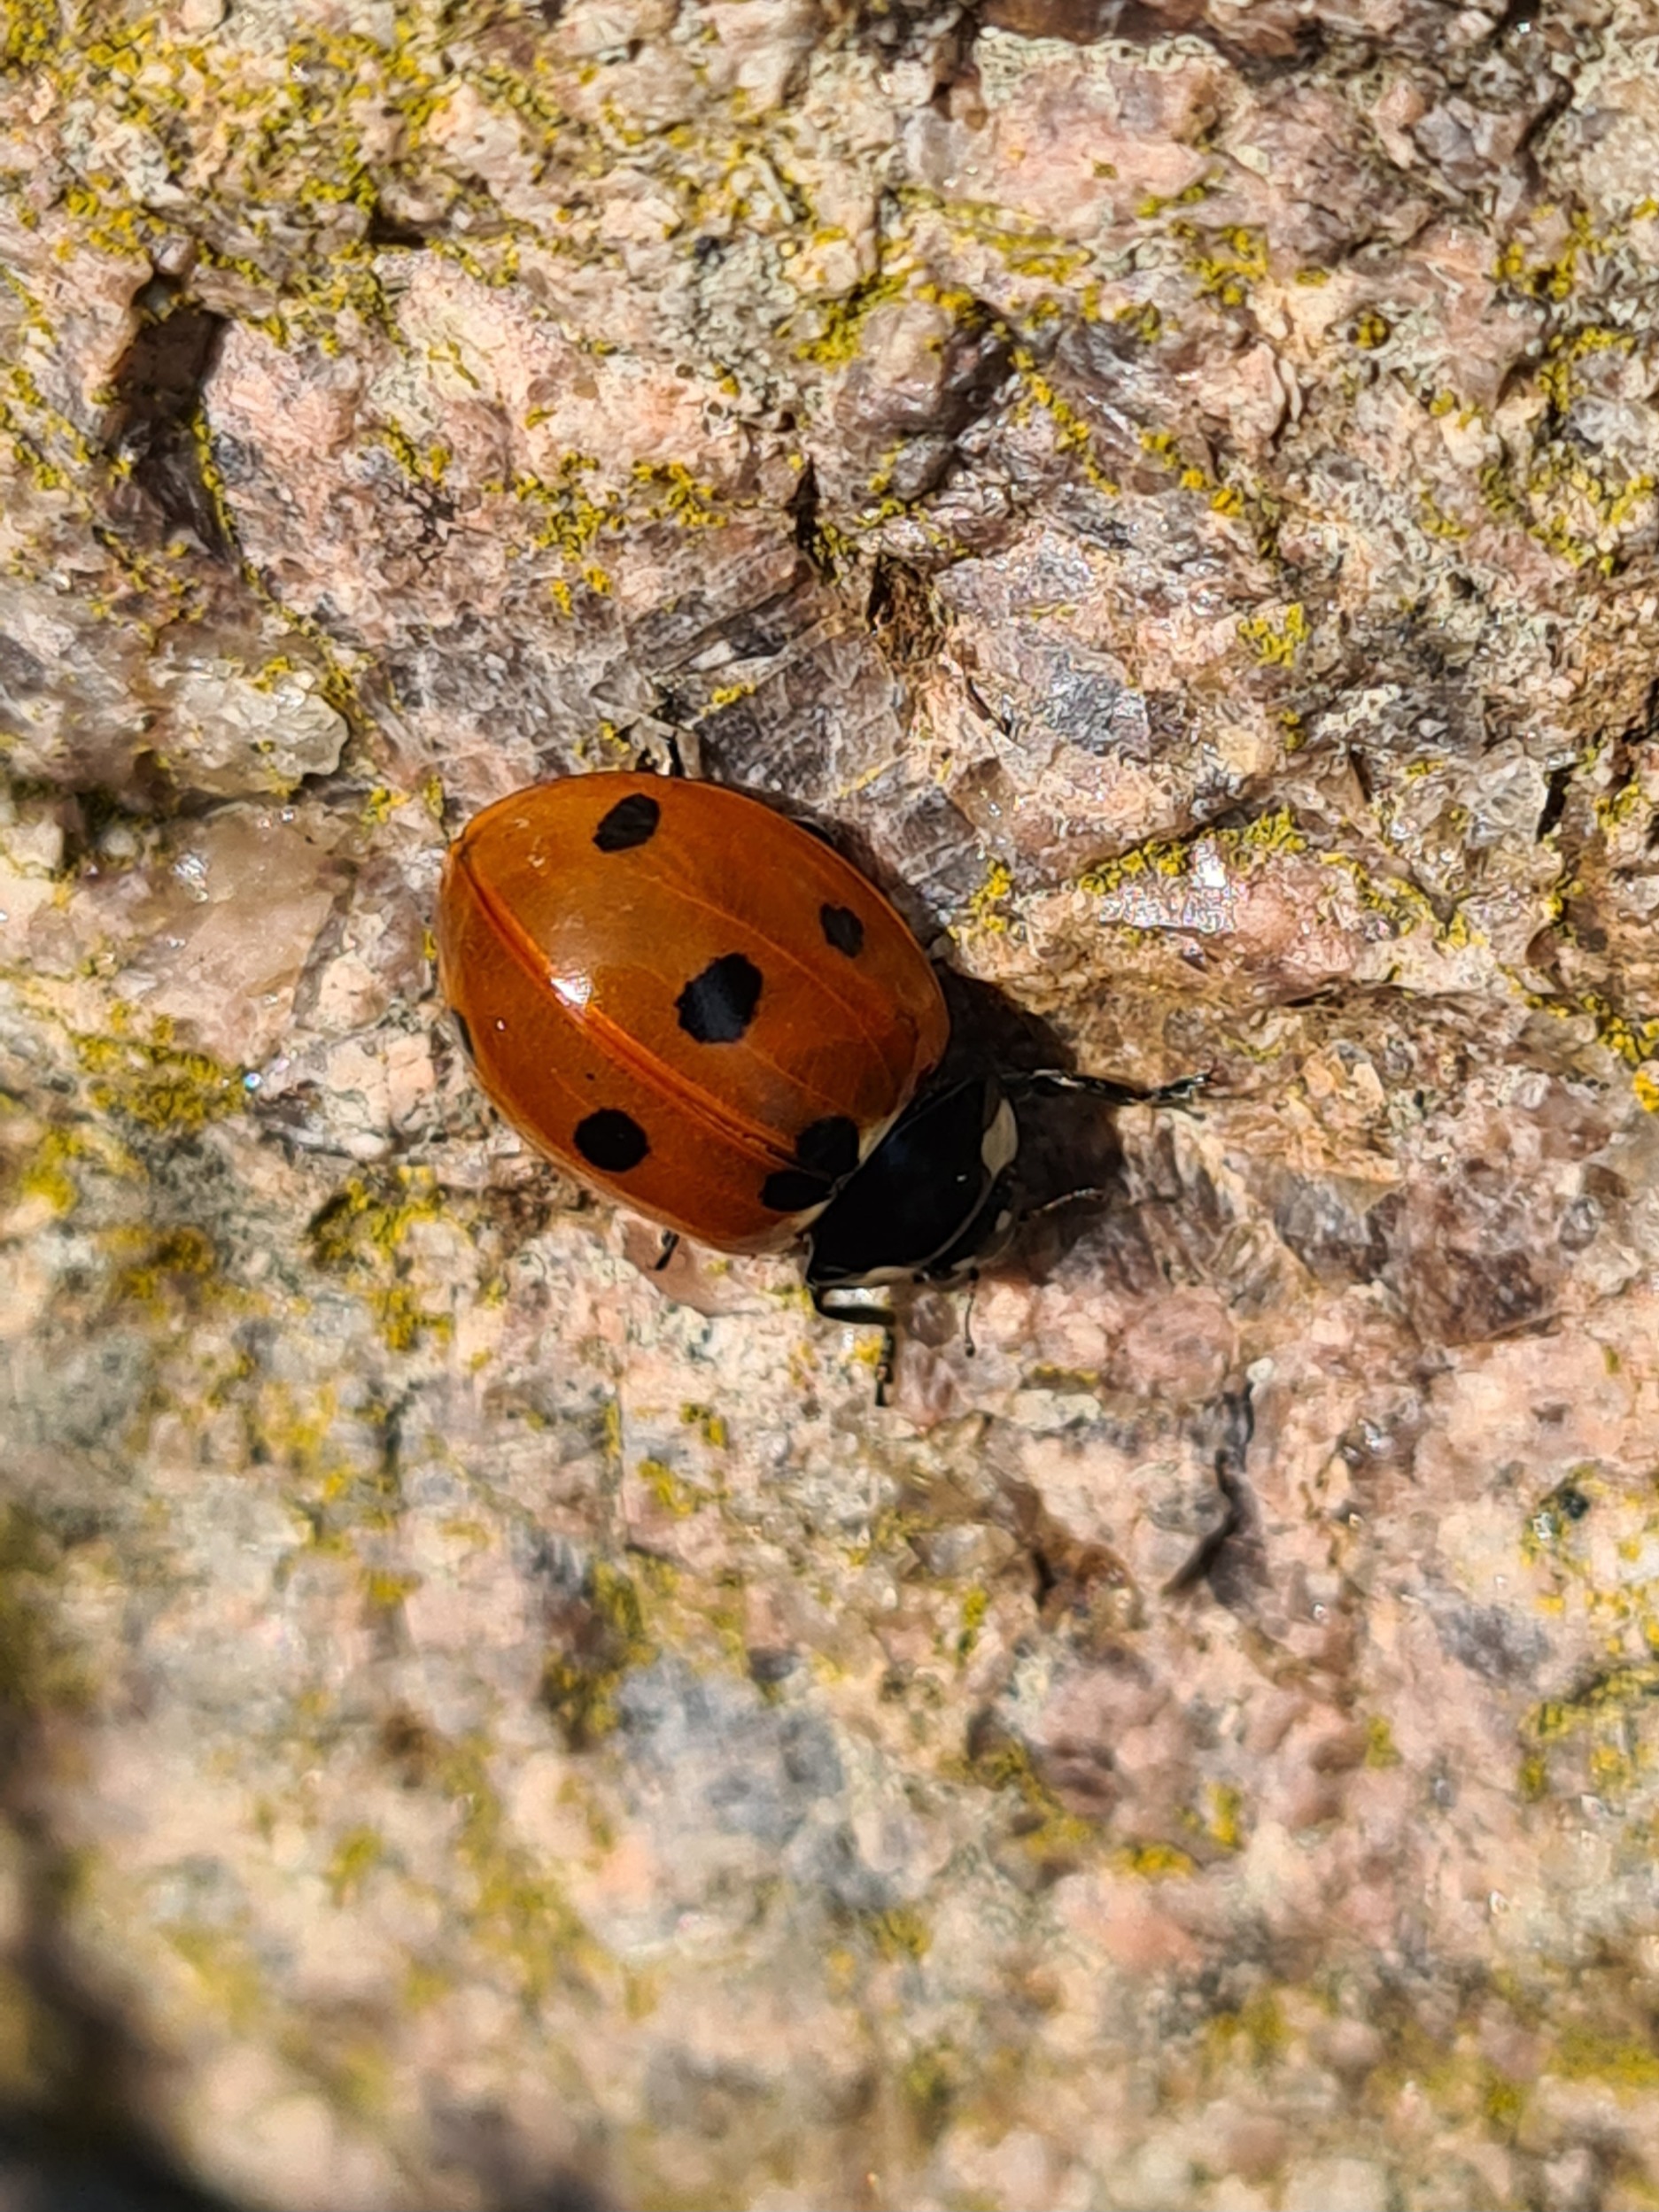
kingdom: Animalia
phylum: Arthropoda
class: Insecta
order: Coleoptera
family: Coccinellidae
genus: Coccinella
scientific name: Coccinella septempunctata
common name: Syvplettet mariehøne
